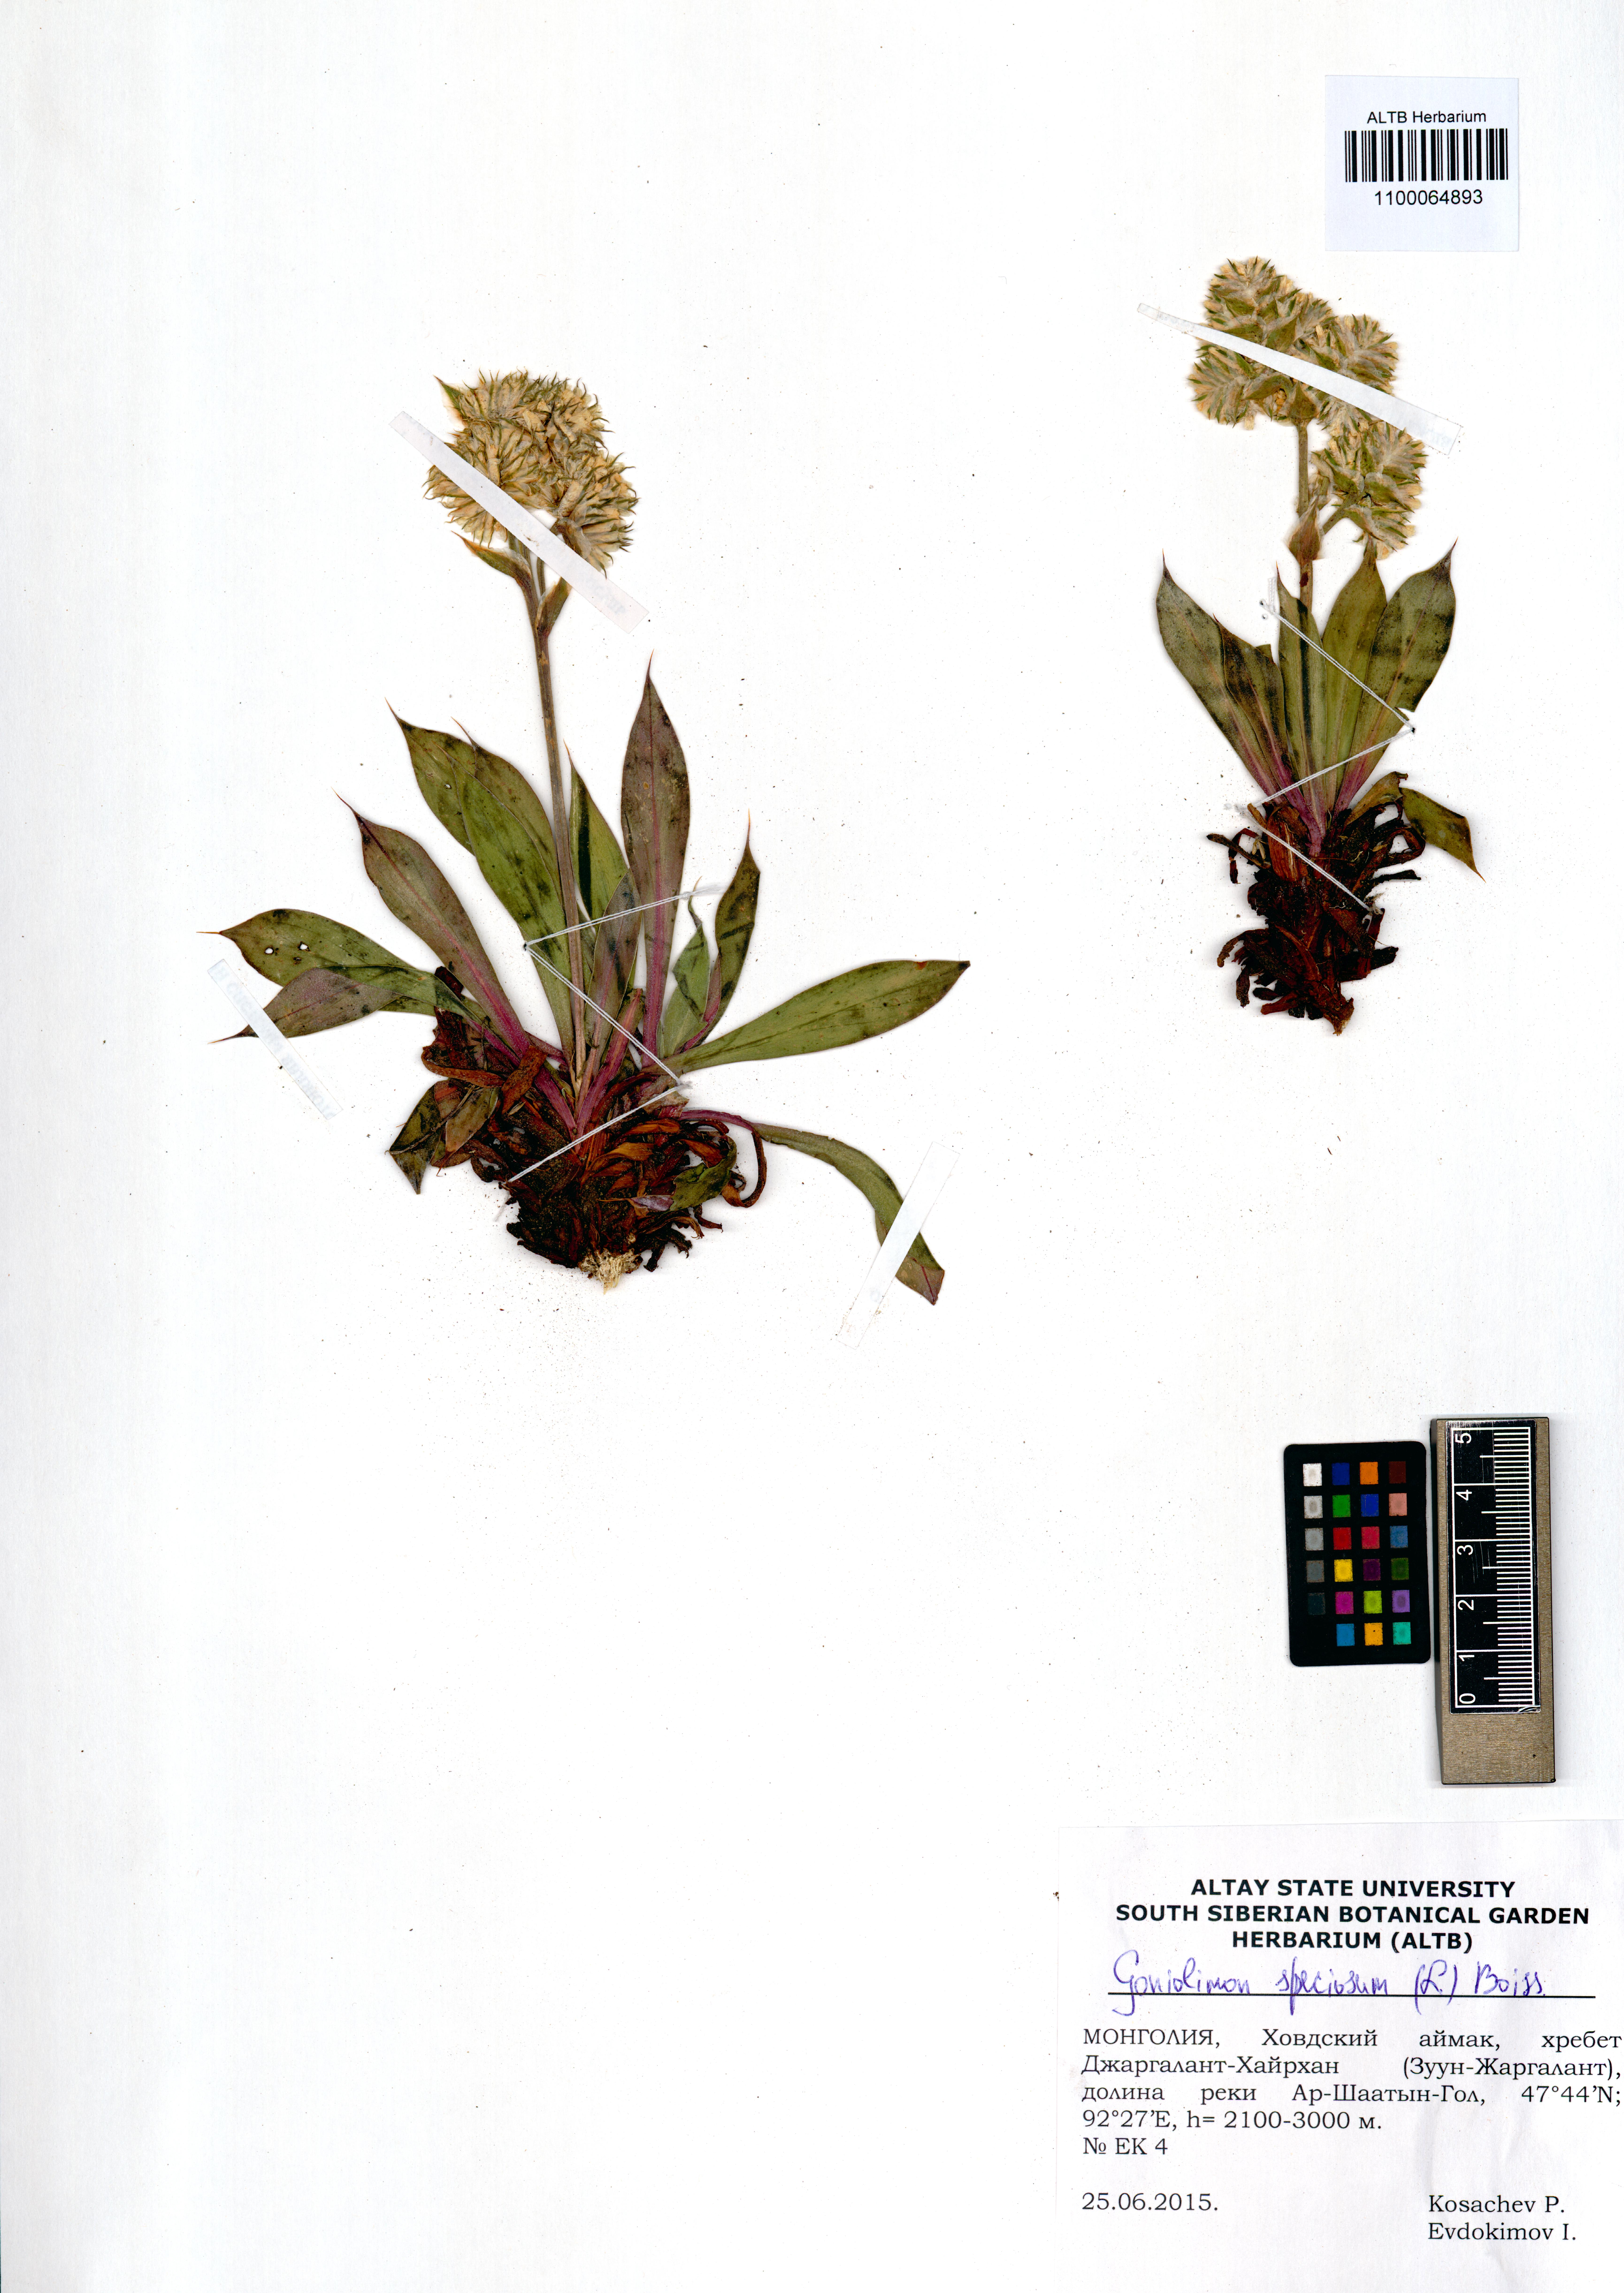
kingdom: Plantae
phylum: Tracheophyta
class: Magnoliopsida
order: Caryophyllales
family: Plumbaginaceae
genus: Goniolimon
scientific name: Goniolimon speciosum
